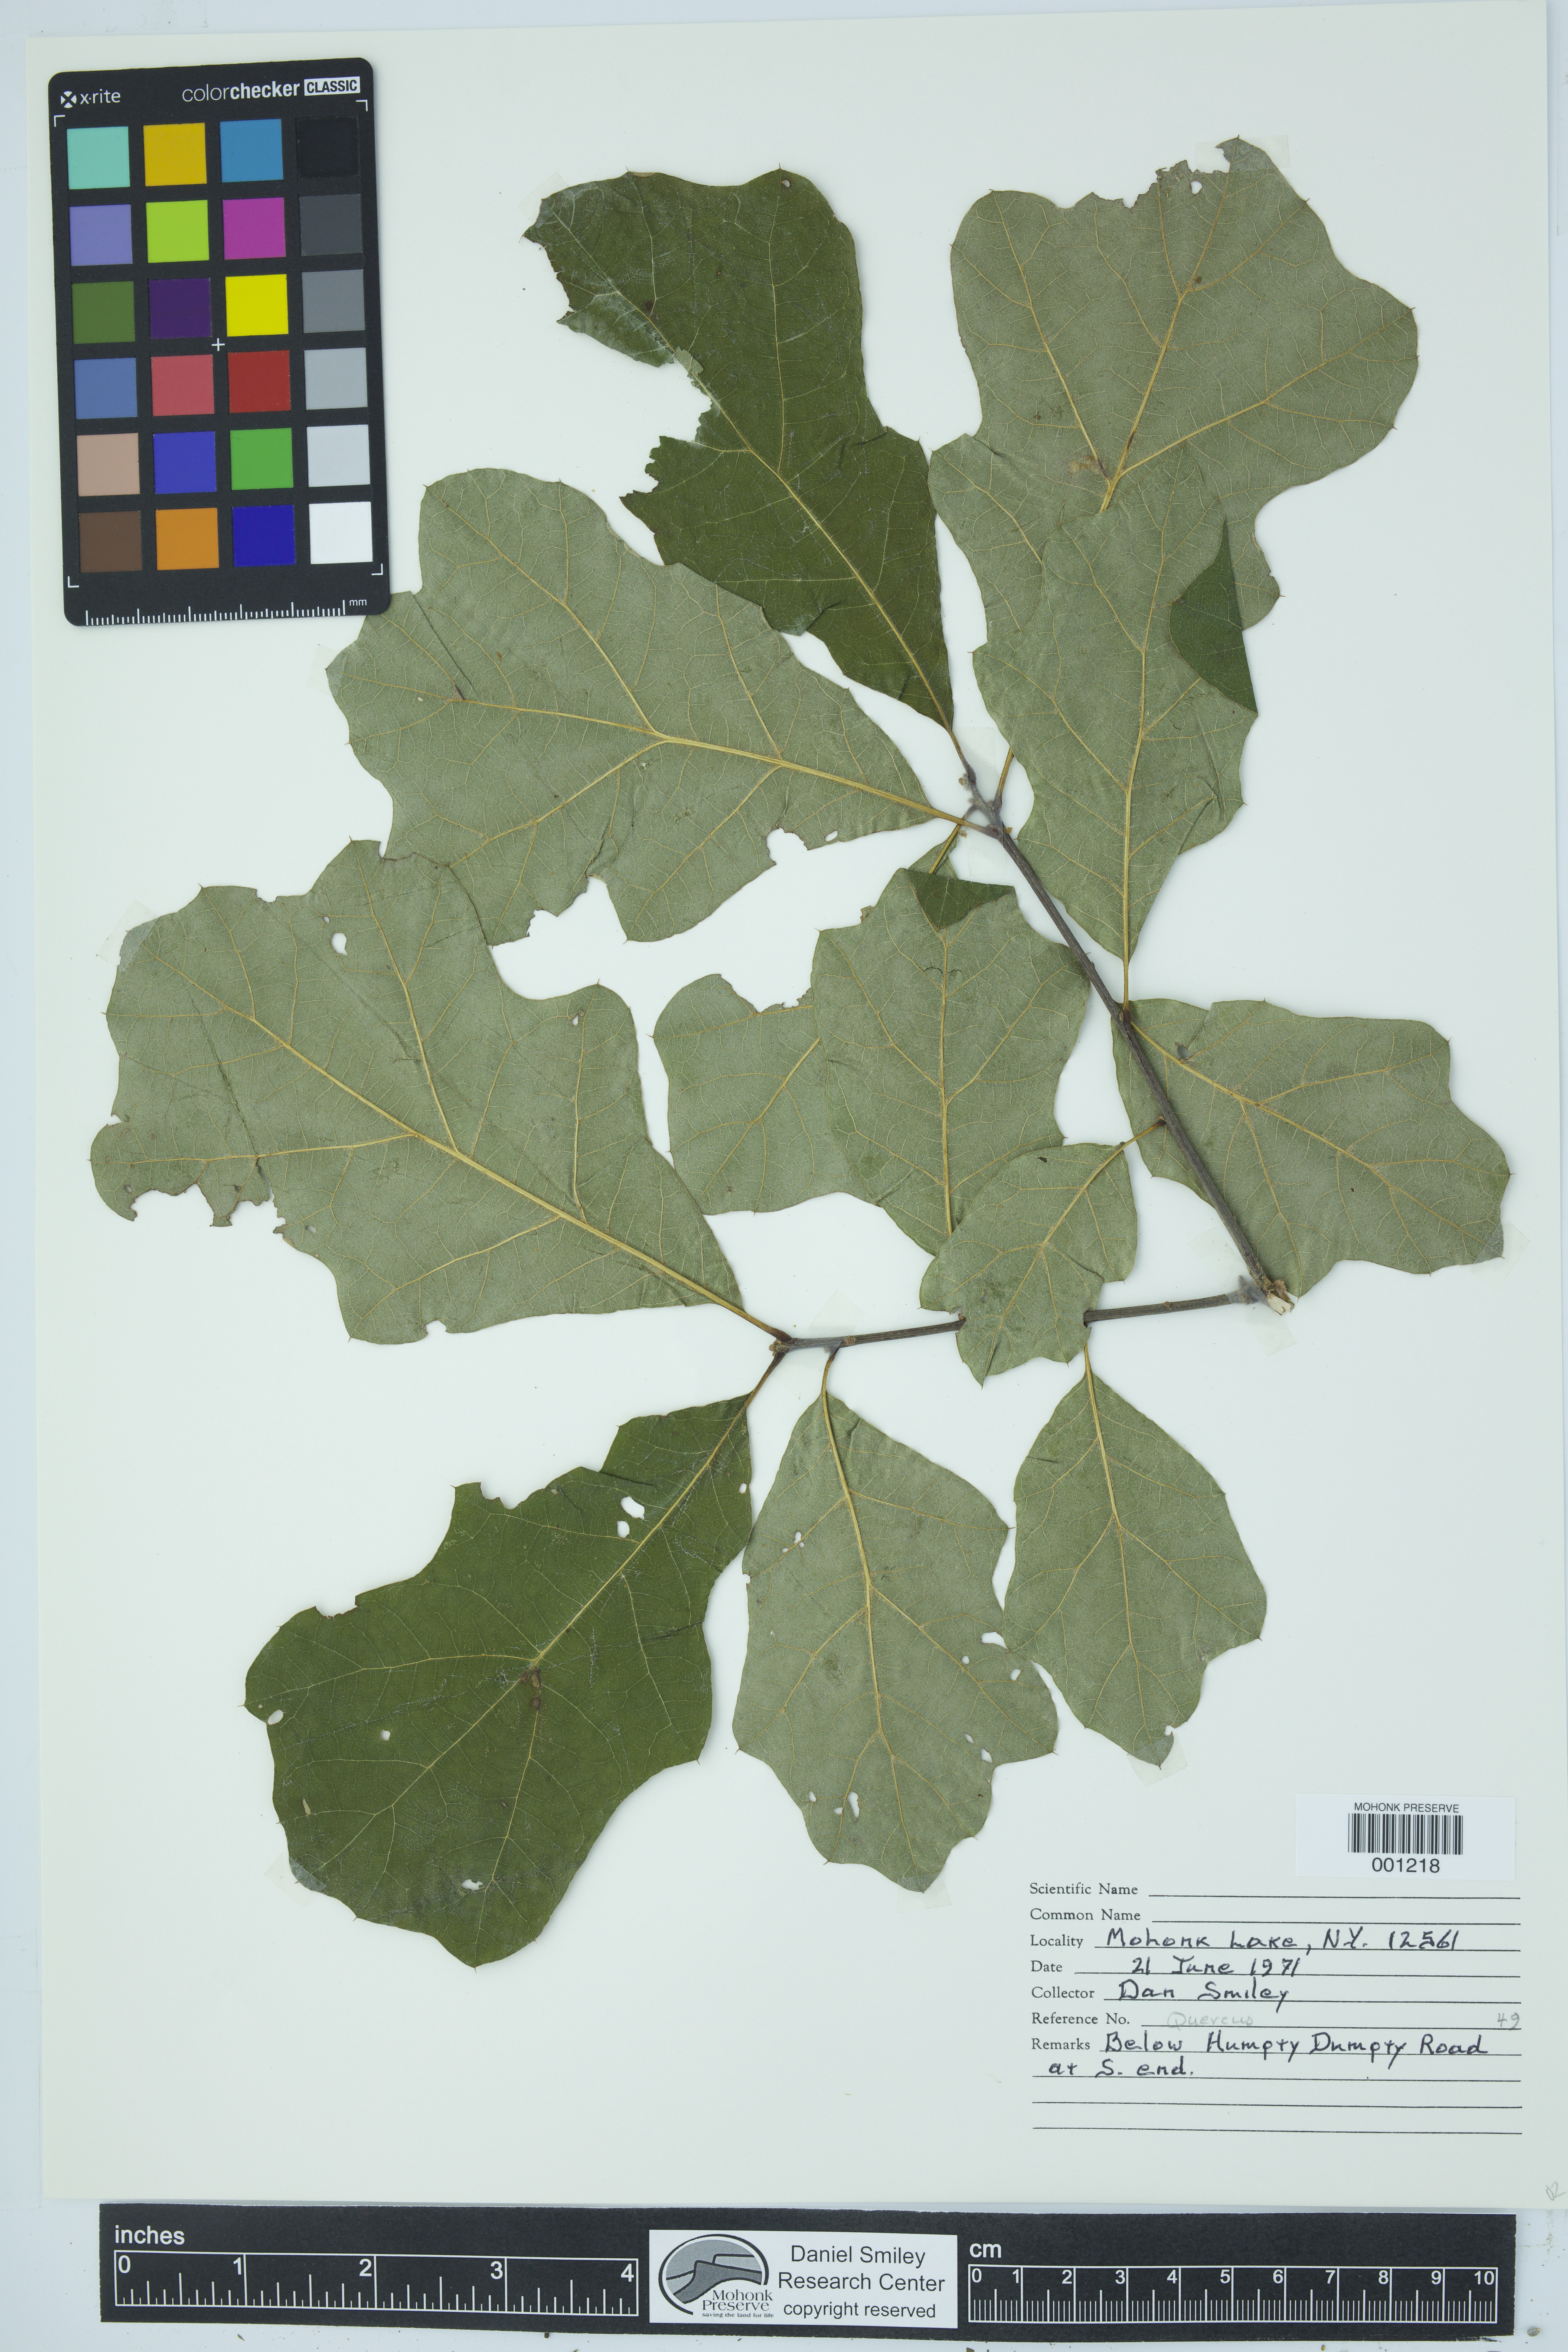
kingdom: Plantae
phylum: Tracheophyta
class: Magnoliopsida
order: Fagales
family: Fagaceae
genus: Quercus
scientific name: Quercus
